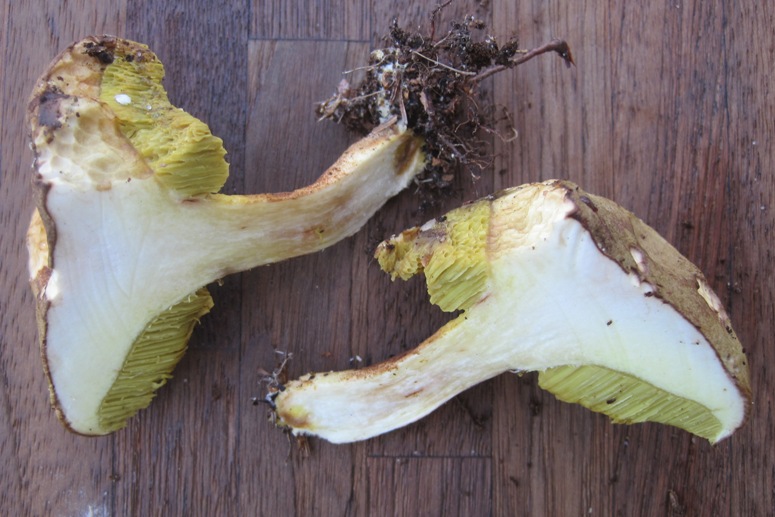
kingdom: Fungi
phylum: Basidiomycota
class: Agaricomycetes
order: Boletales
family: Boletaceae
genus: Xerocomus
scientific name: Xerocomus ferrugineus
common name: vaskeskinds-rørhat
